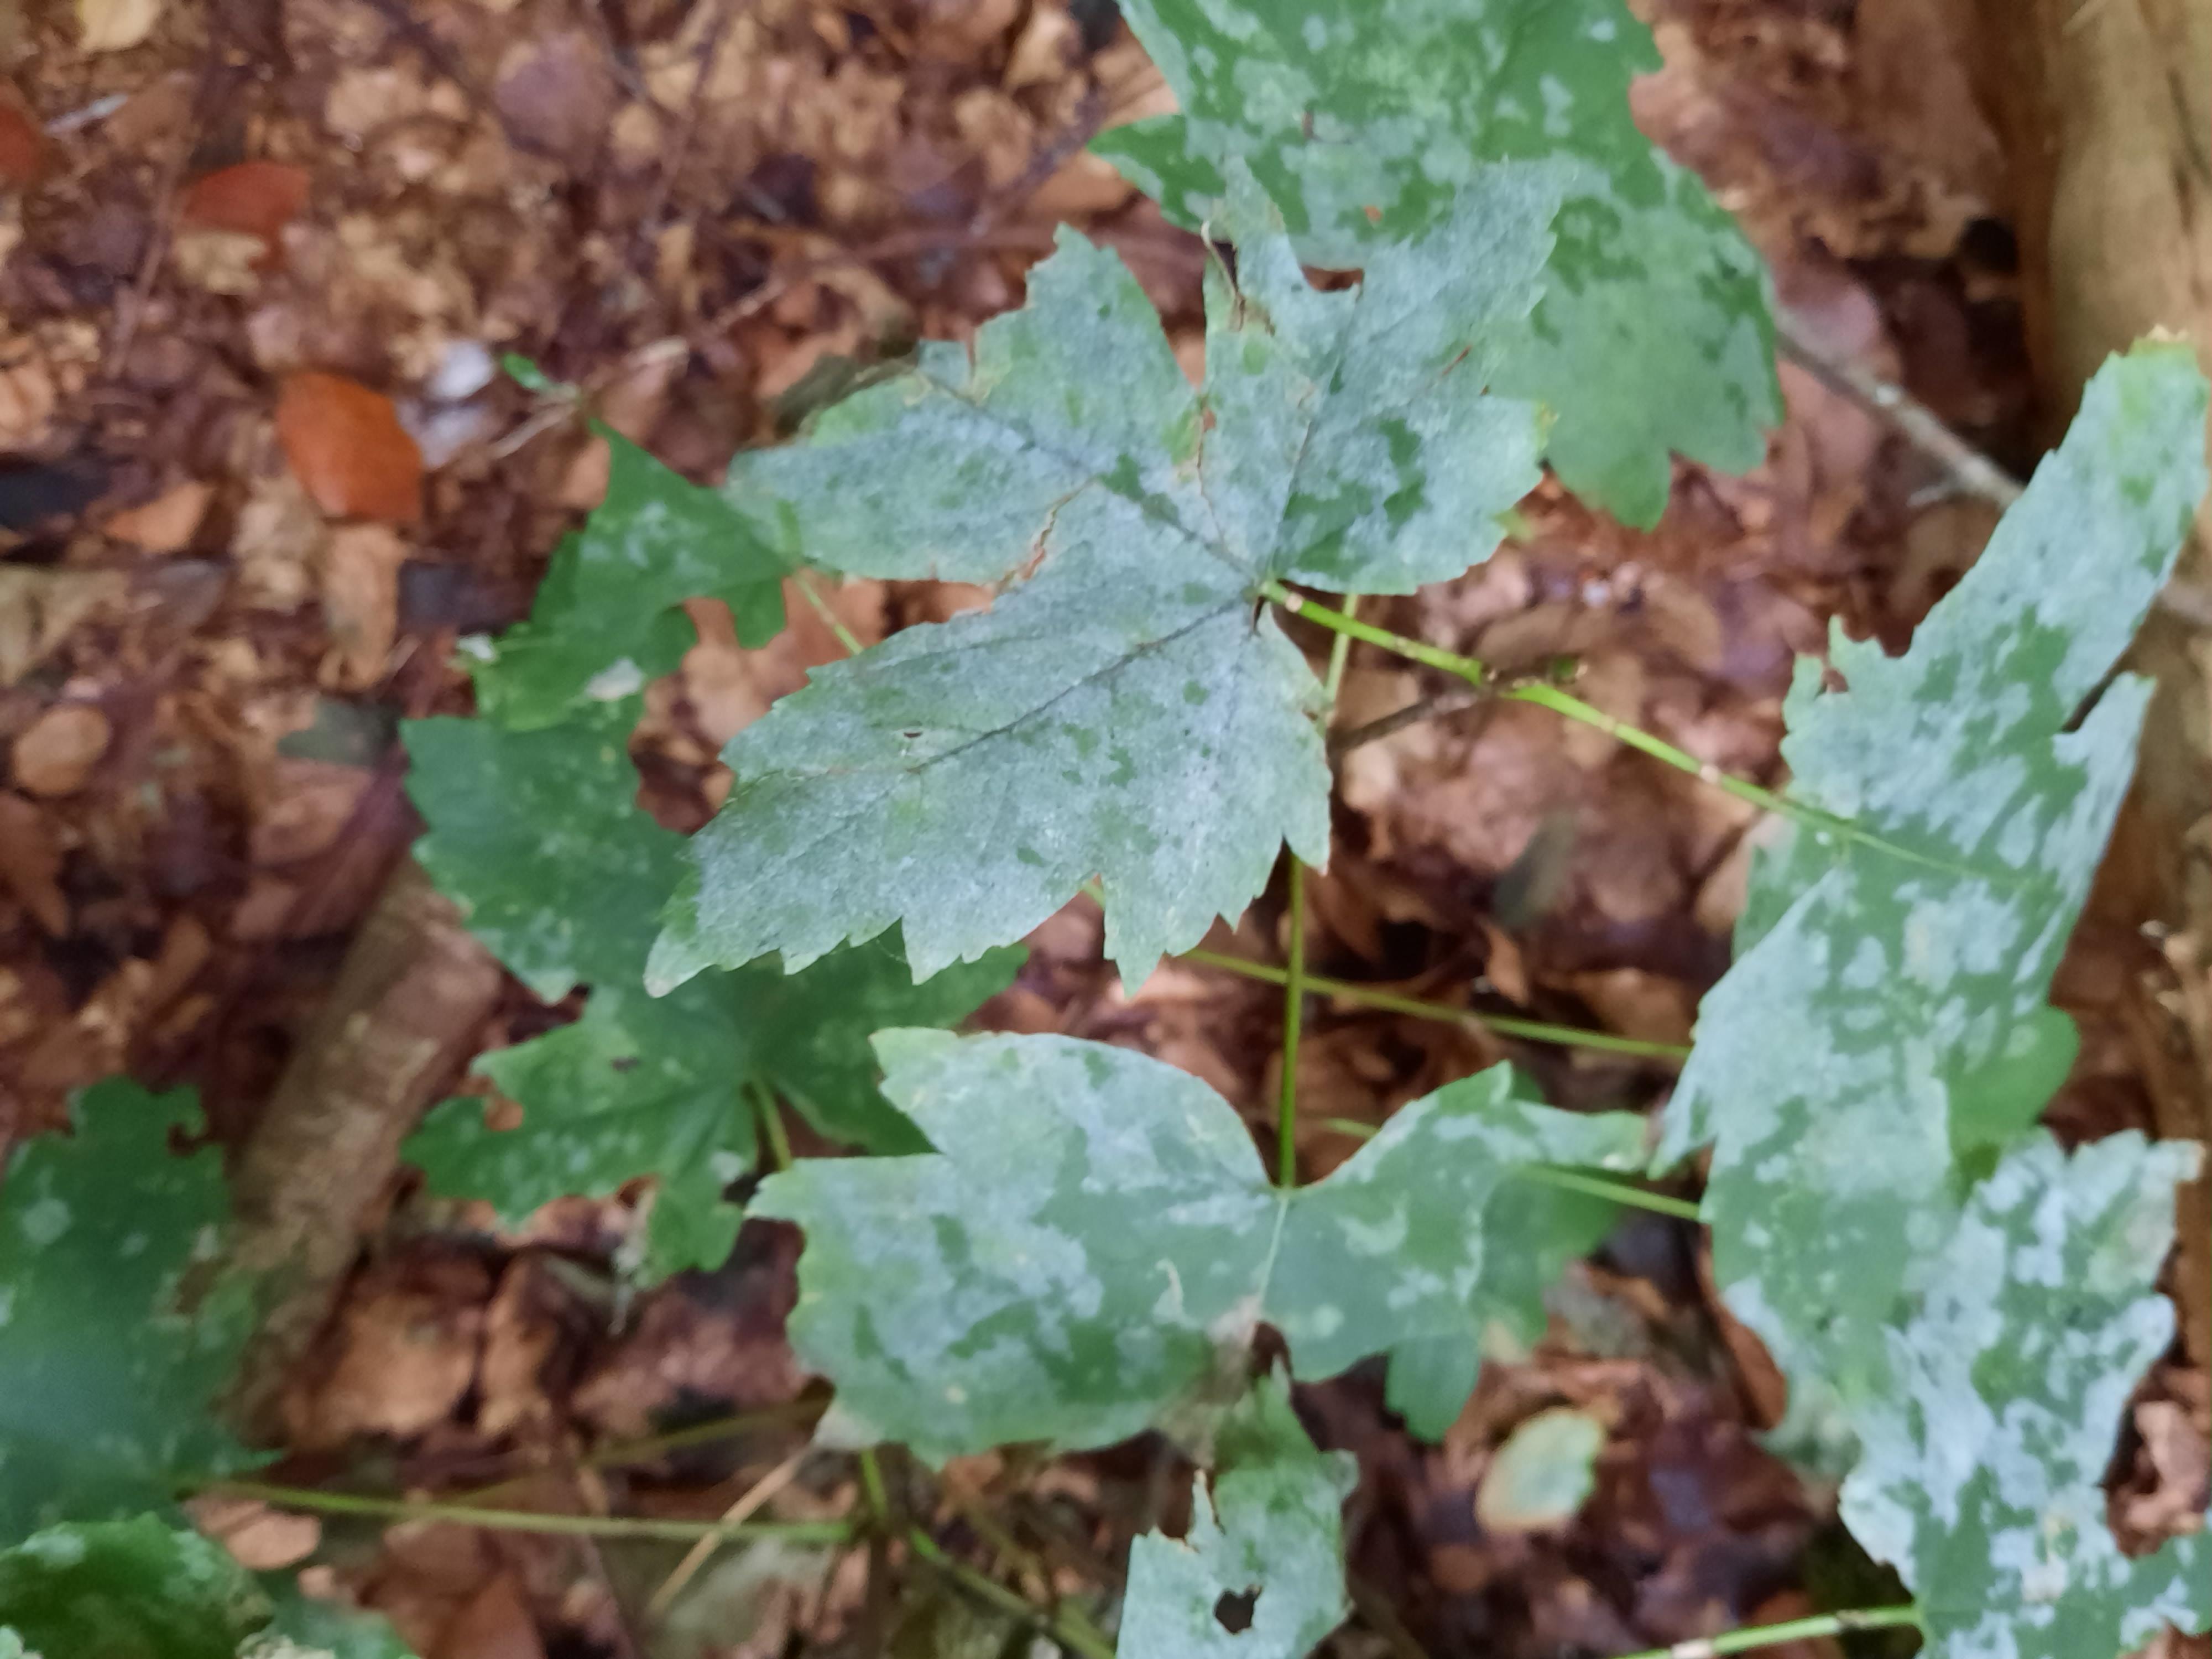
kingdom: Fungi
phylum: Ascomycota
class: Leotiomycetes
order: Helotiales
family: Erysiphaceae
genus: Sawadaea
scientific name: Sawadaea bicornis
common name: Maple mildew
